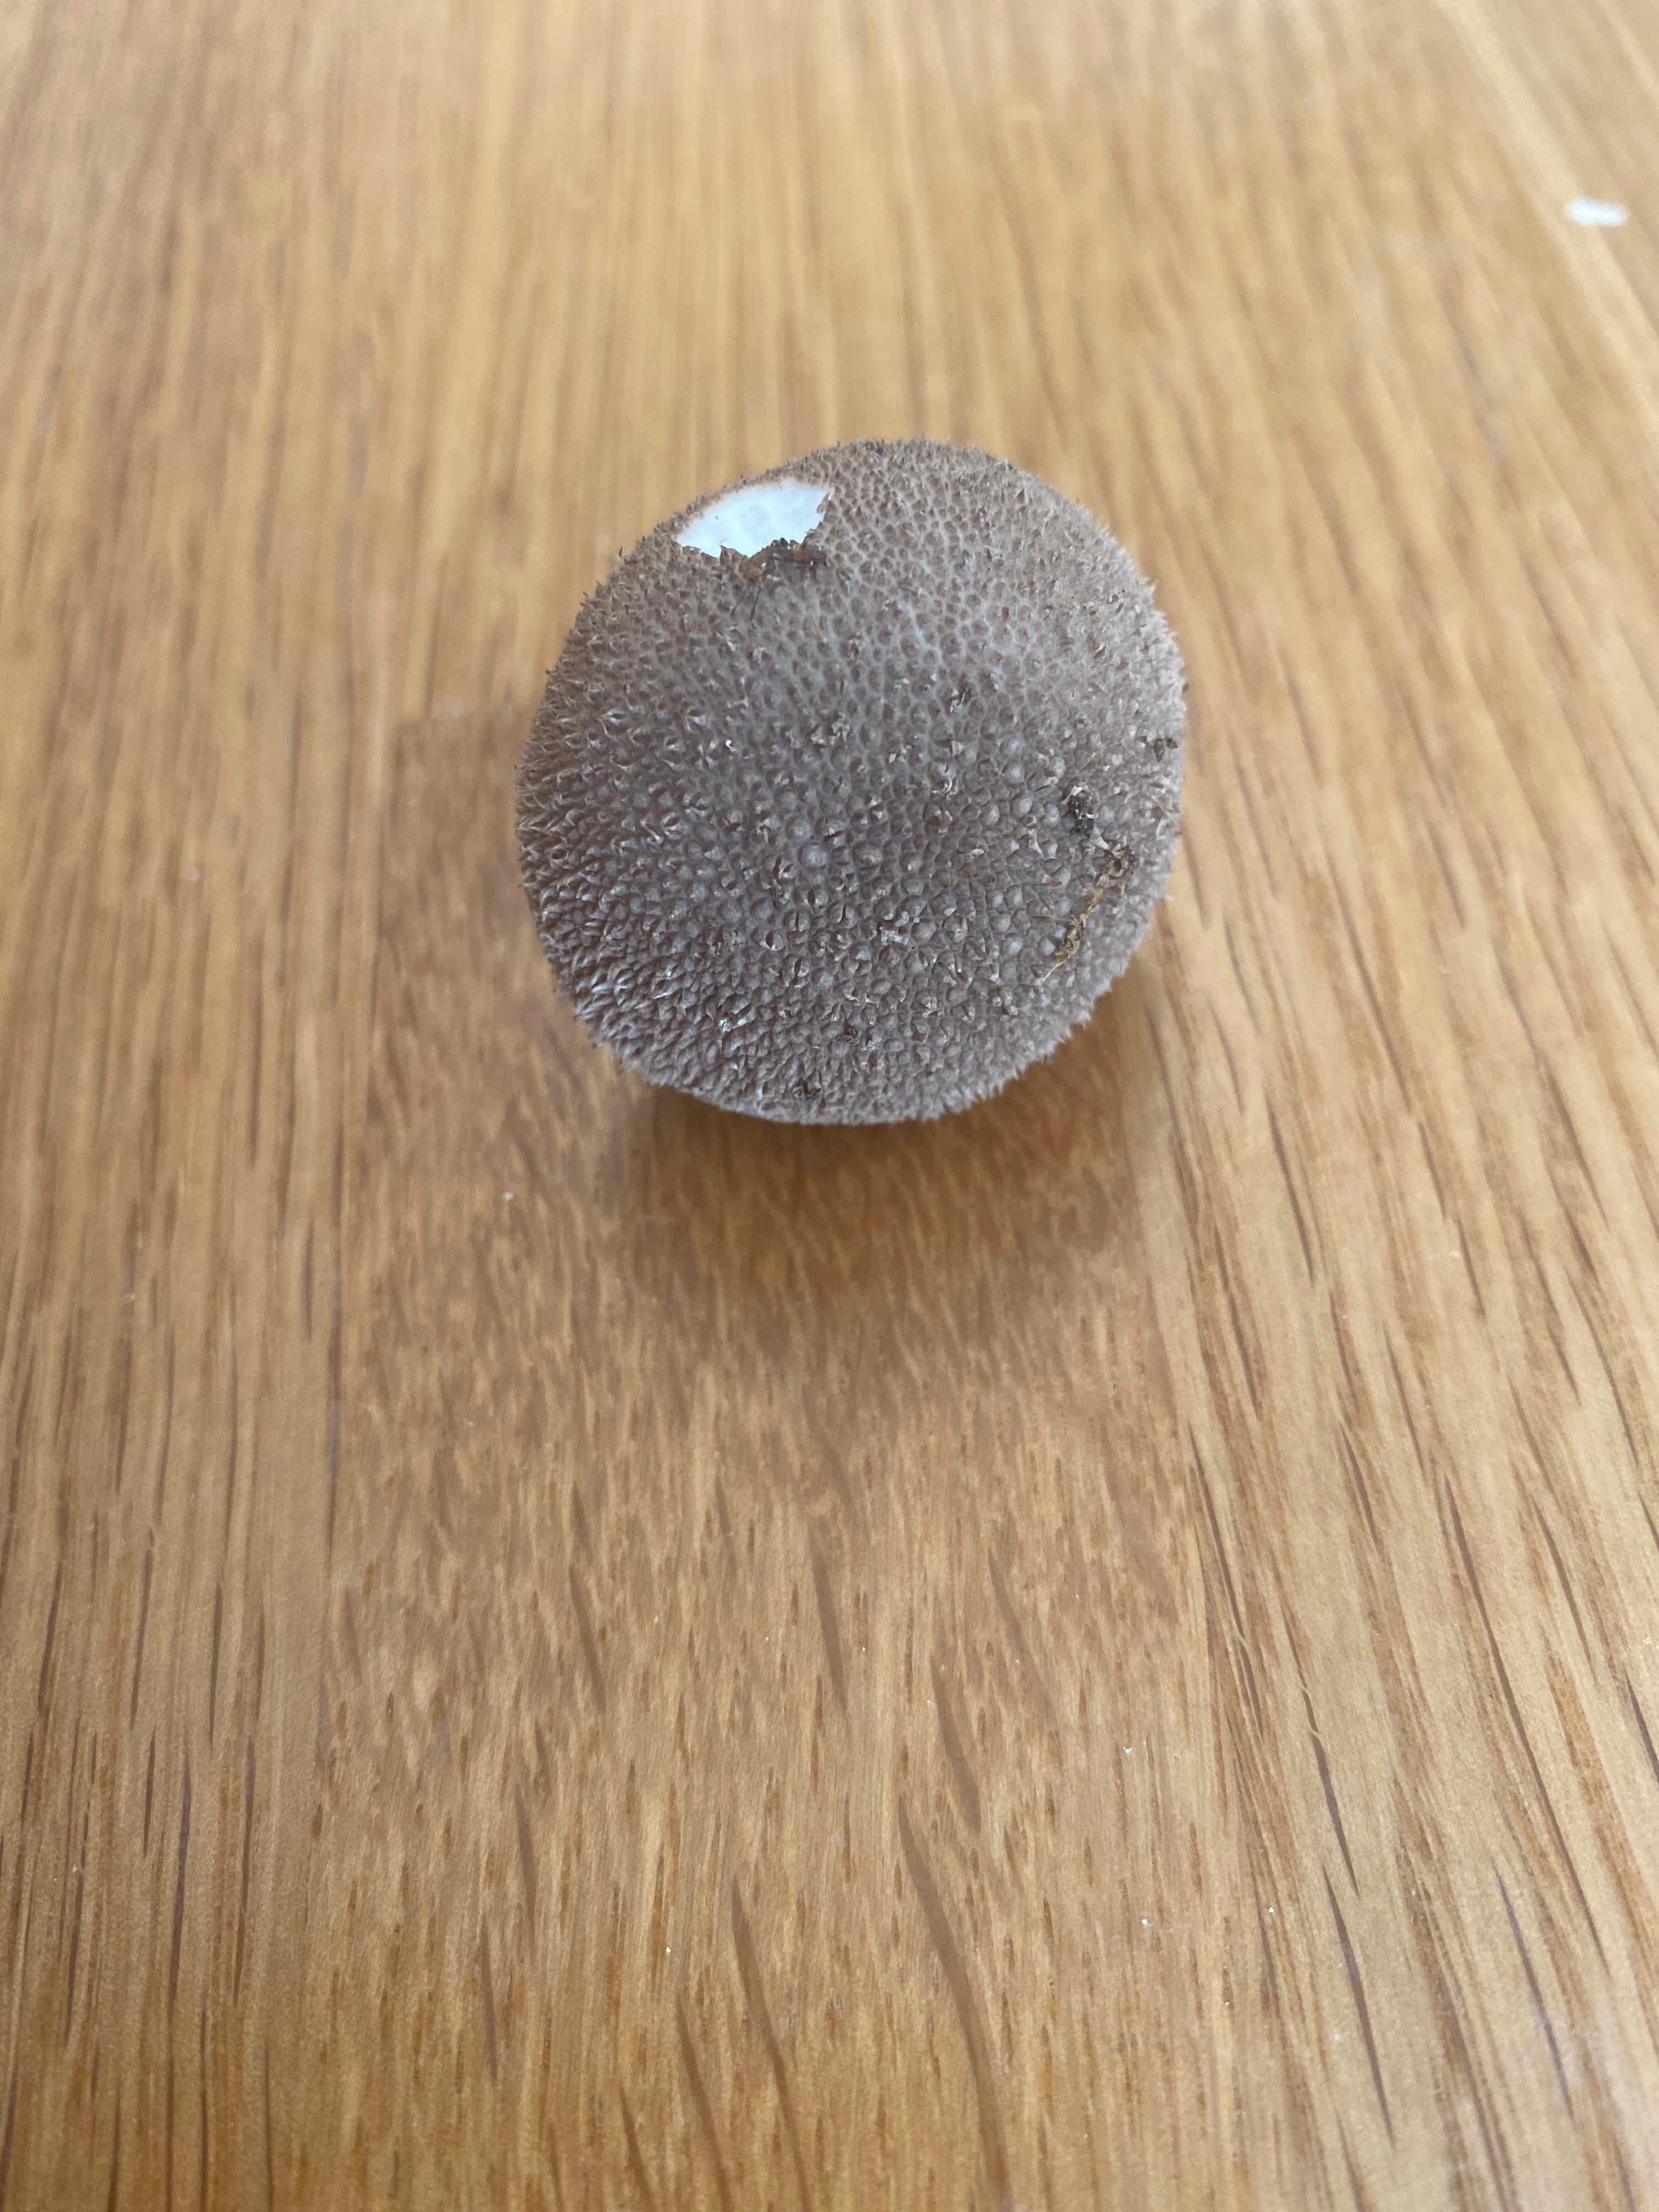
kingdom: Fungi
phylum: Basidiomycota
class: Agaricomycetes
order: Agaricales
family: Lycoperdaceae
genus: Lycoperdon
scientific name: Lycoperdon nigrescens
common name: sortagtig støvbold
